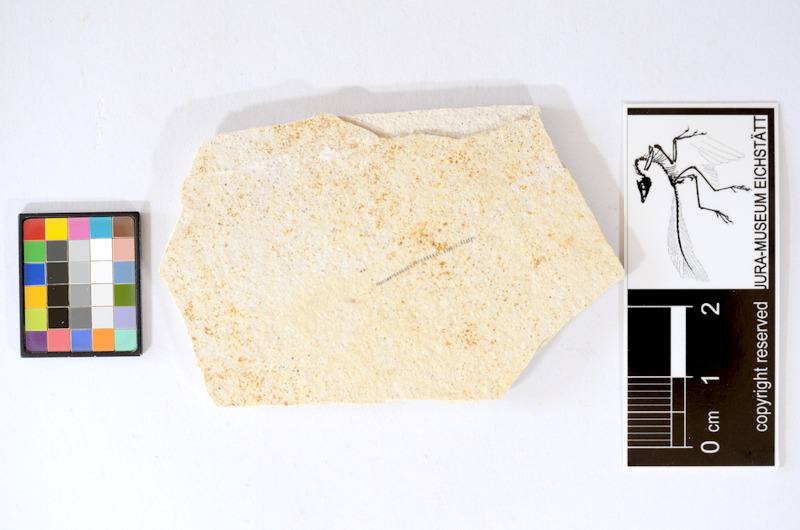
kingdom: Animalia
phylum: Chordata
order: Salmoniformes
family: Orthogonikleithridae
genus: Orthogonikleithrus
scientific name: Orthogonikleithrus hoelli
